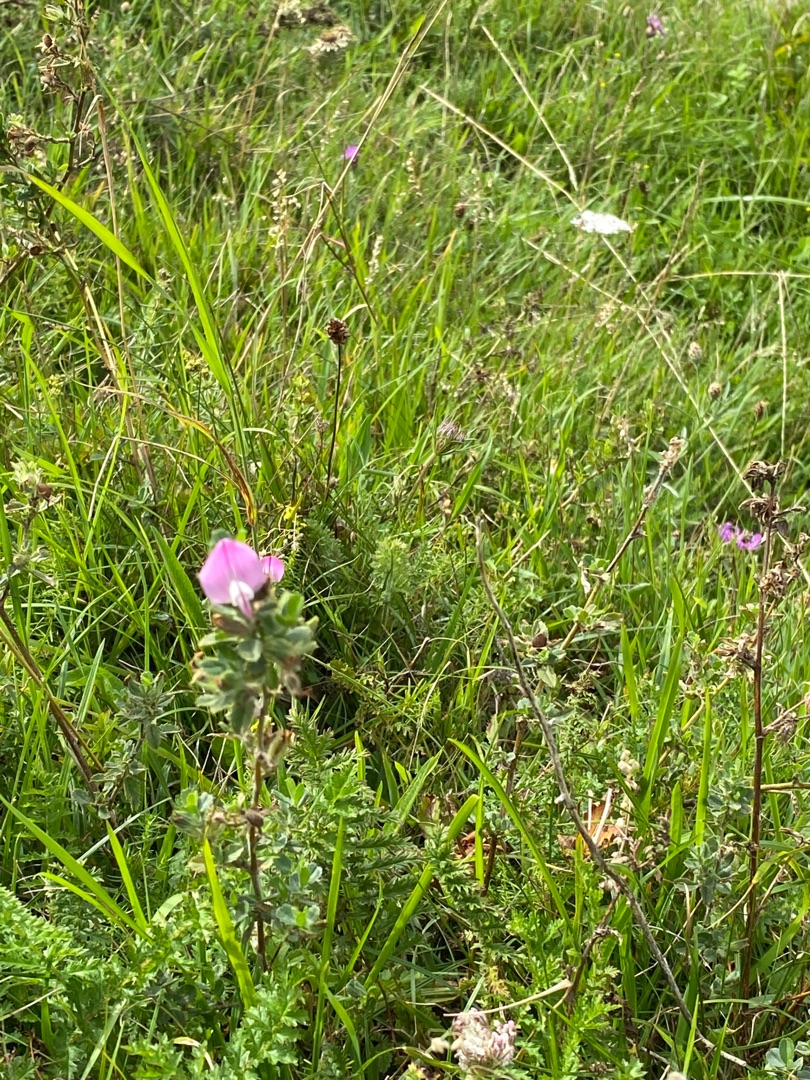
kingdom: Plantae
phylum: Tracheophyta
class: Magnoliopsida
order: Fabales
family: Fabaceae
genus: Ononis
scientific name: Ononis spinosa
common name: Mark-krageklo
